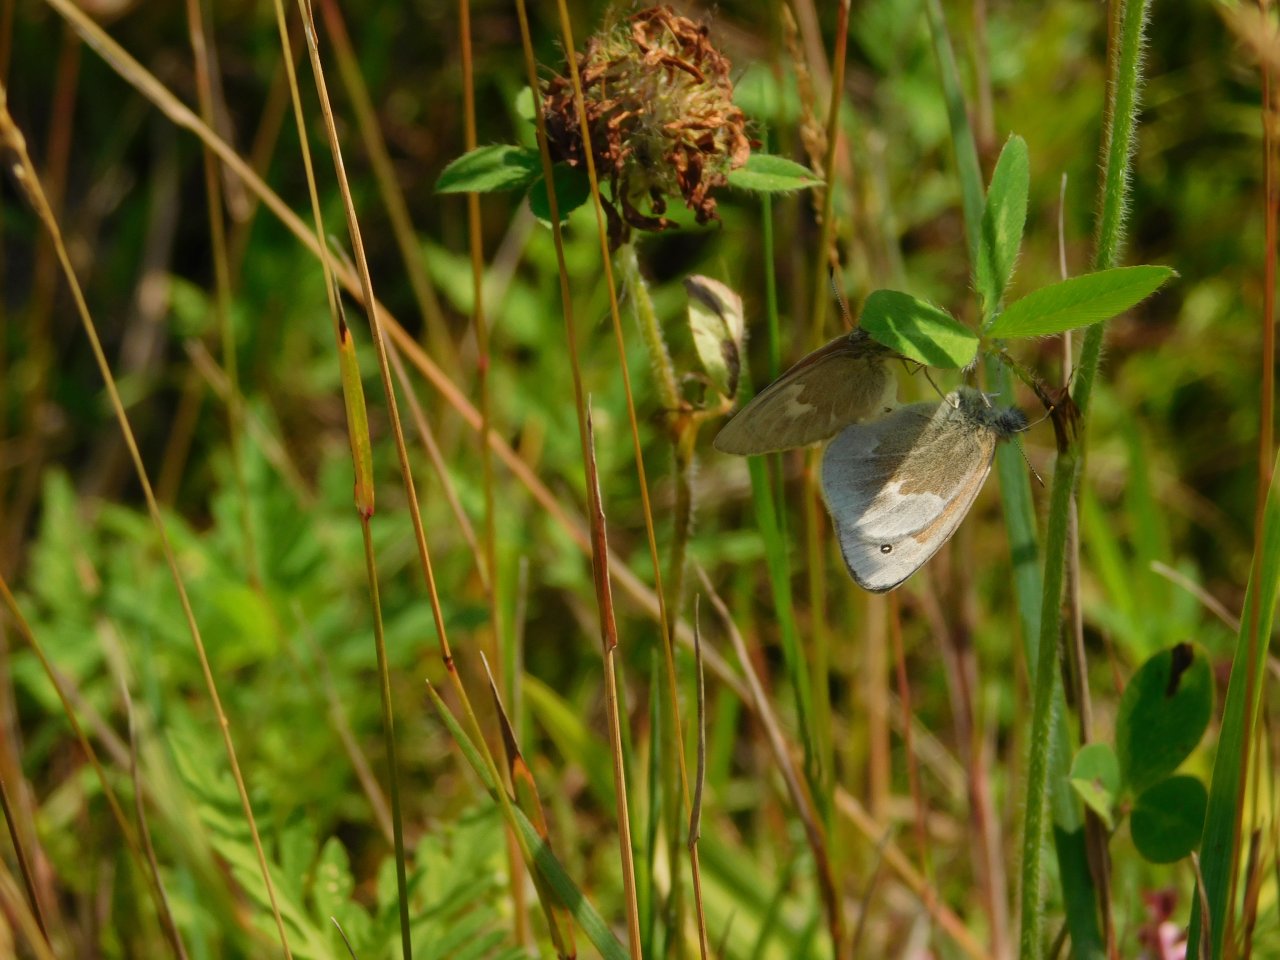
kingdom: Animalia
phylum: Arthropoda
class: Insecta
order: Lepidoptera
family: Nymphalidae
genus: Coenonympha
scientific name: Coenonympha tullia
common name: Large Heath
